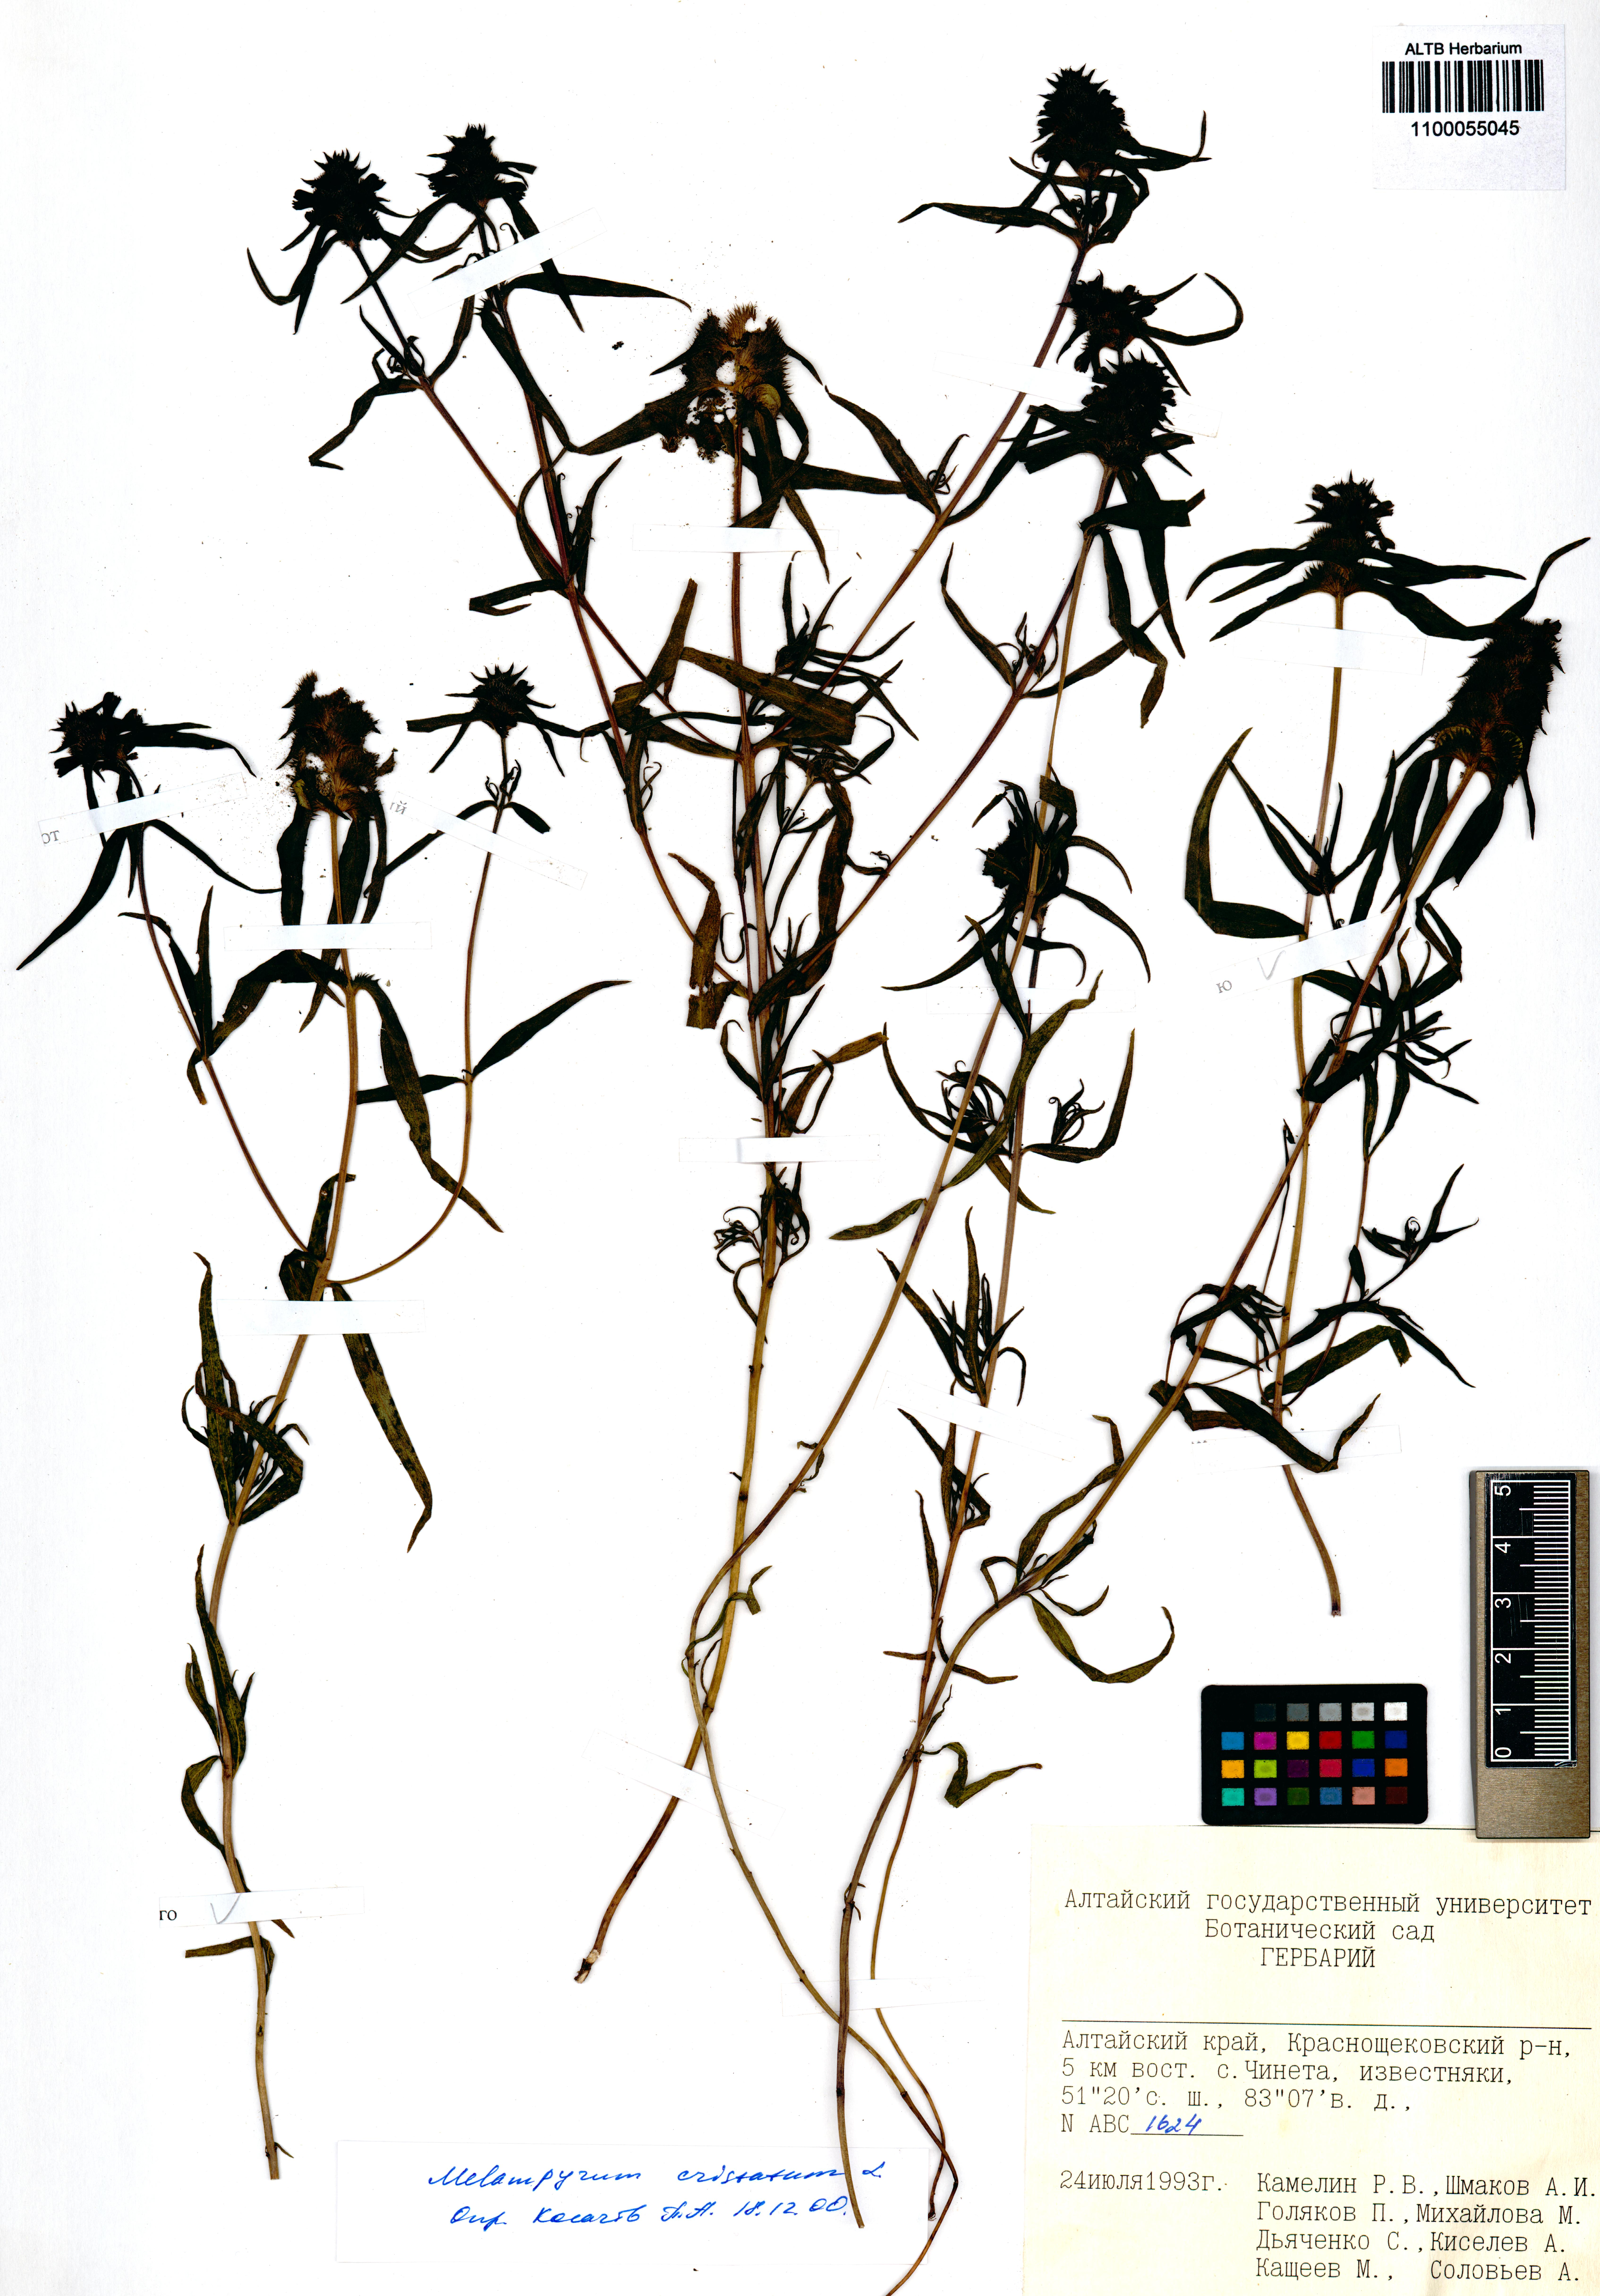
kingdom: Plantae
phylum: Tracheophyta
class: Magnoliopsida
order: Lamiales
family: Orobanchaceae
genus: Melampyrum
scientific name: Melampyrum cristatum
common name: Crested cow-wheat
